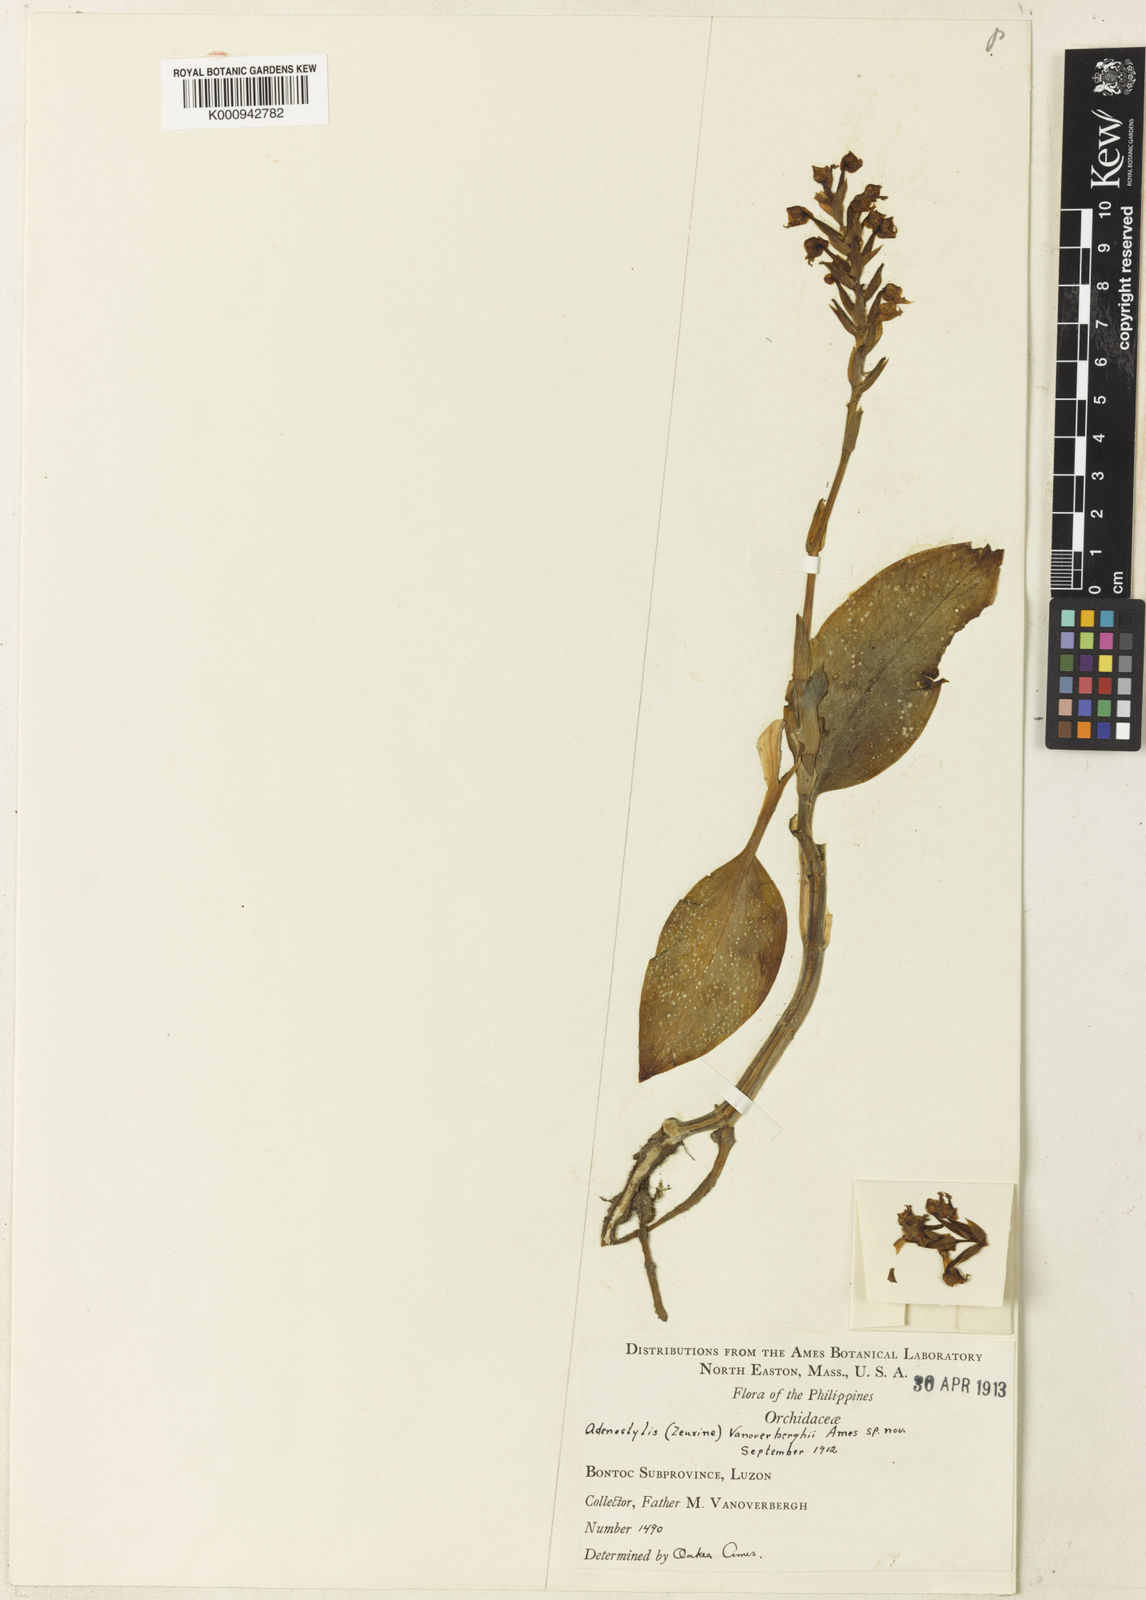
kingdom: Plantae
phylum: Tracheophyta
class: Liliopsida
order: Asparagales
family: Orchidaceae
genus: Rhomboda
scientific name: Rhomboda lanceolata
